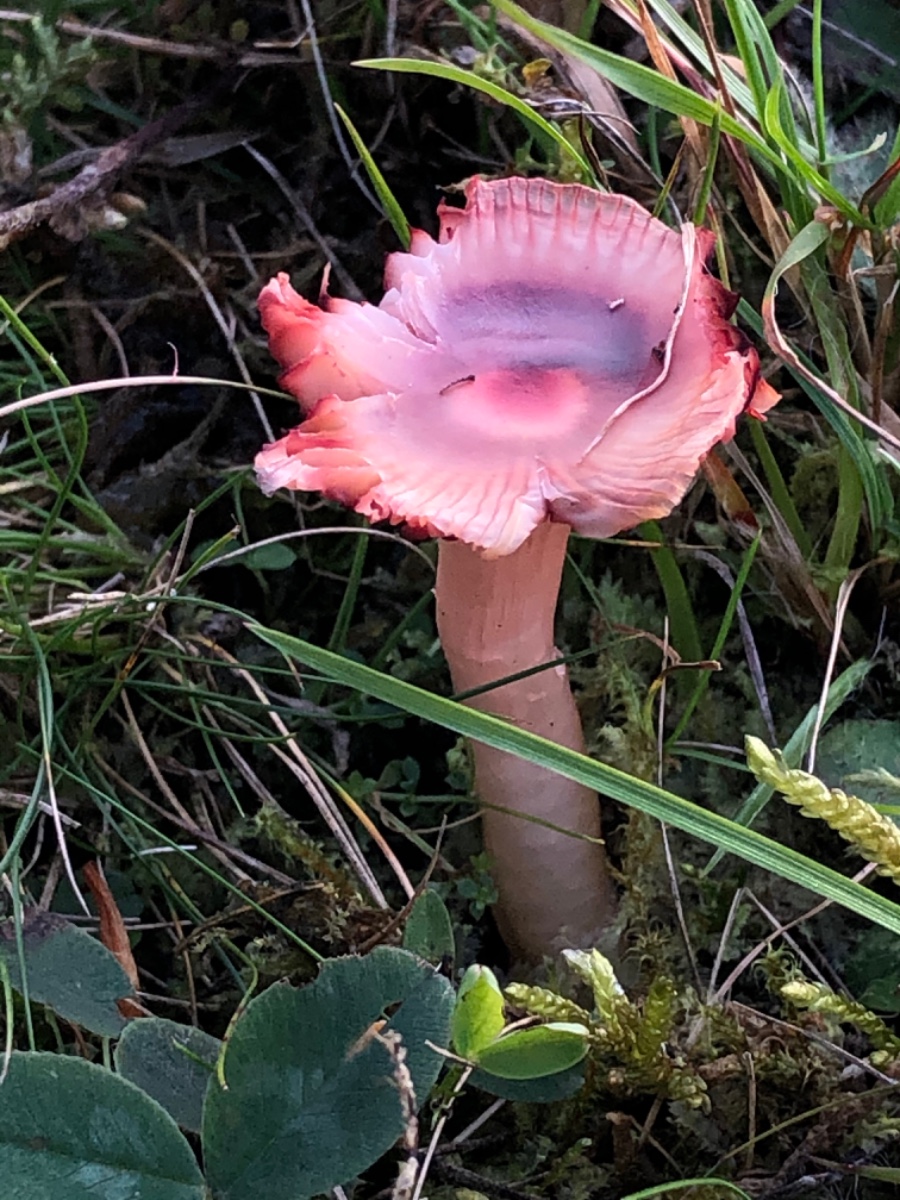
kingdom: Fungi
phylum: Basidiomycota
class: Agaricomycetes
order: Agaricales
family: Hygrophoraceae
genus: Gliophorus
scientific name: Gliophorus reginae
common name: parakit-vokshat
